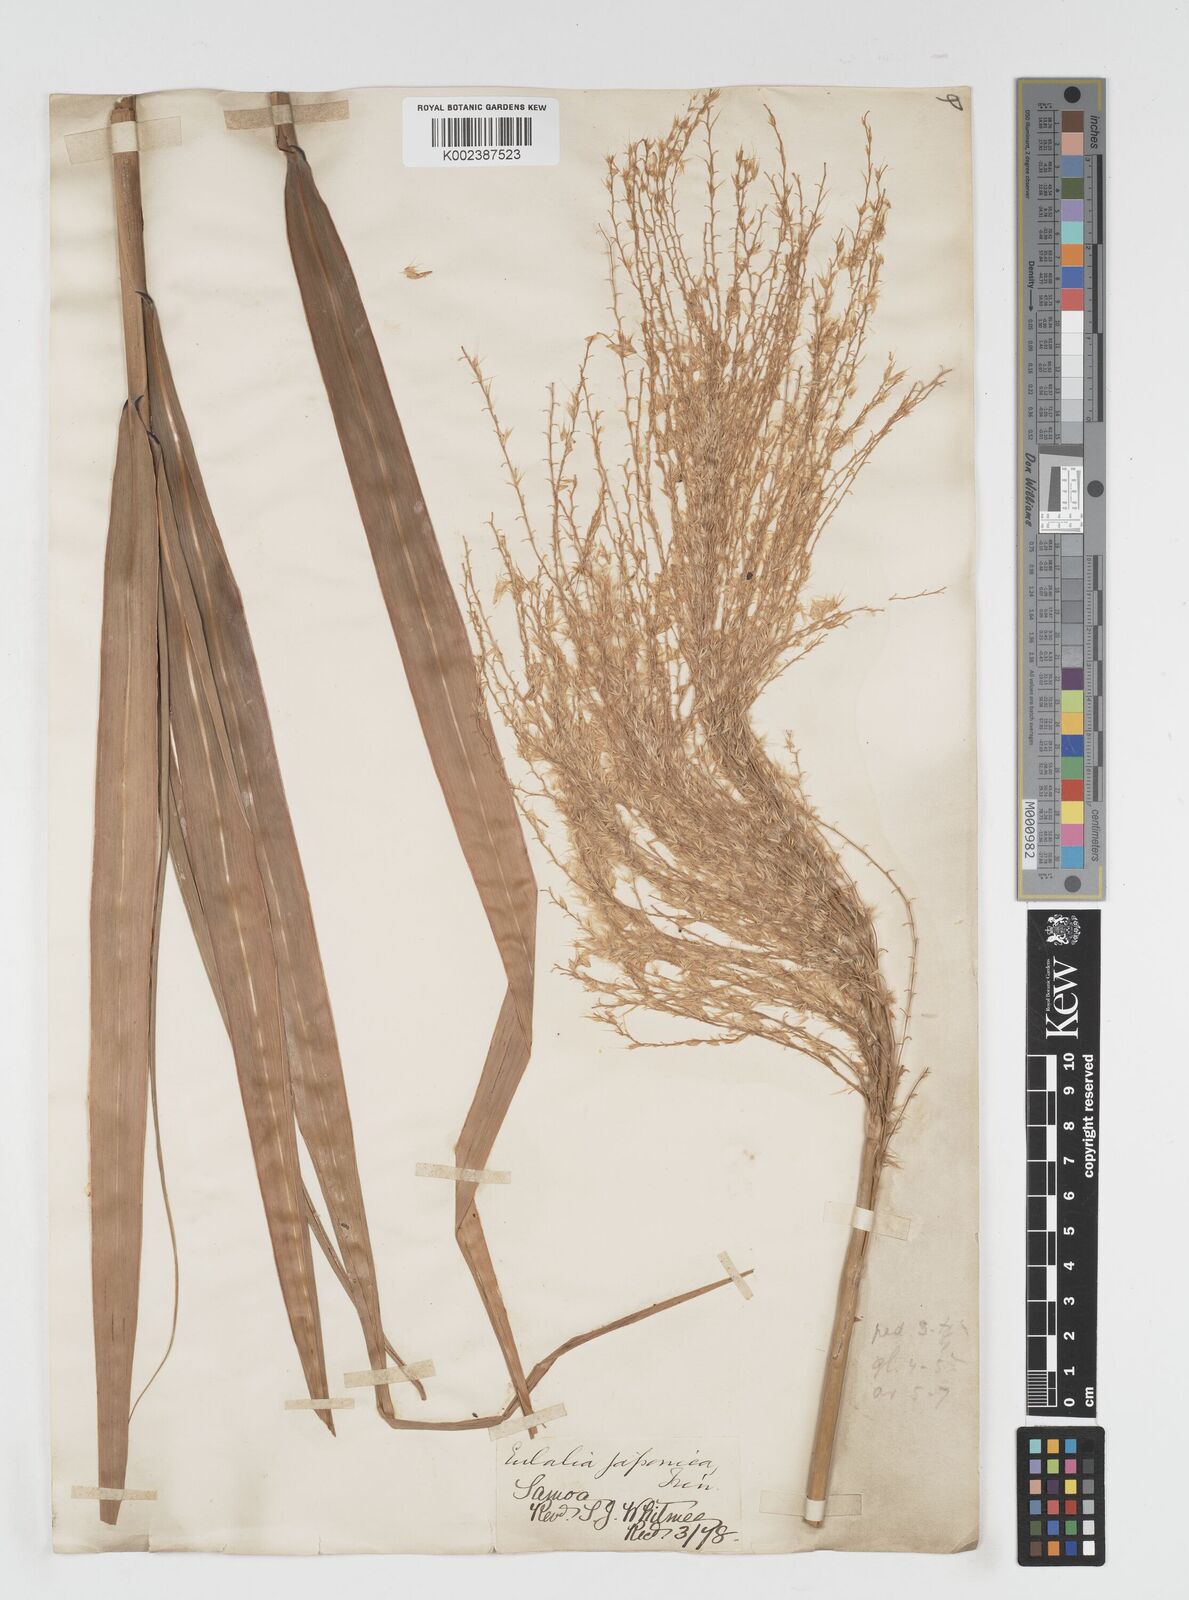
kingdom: Plantae
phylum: Tracheophyta
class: Liliopsida
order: Poales
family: Poaceae
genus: Miscanthus
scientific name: Miscanthus floridulus
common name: Pacific island silvergrass
